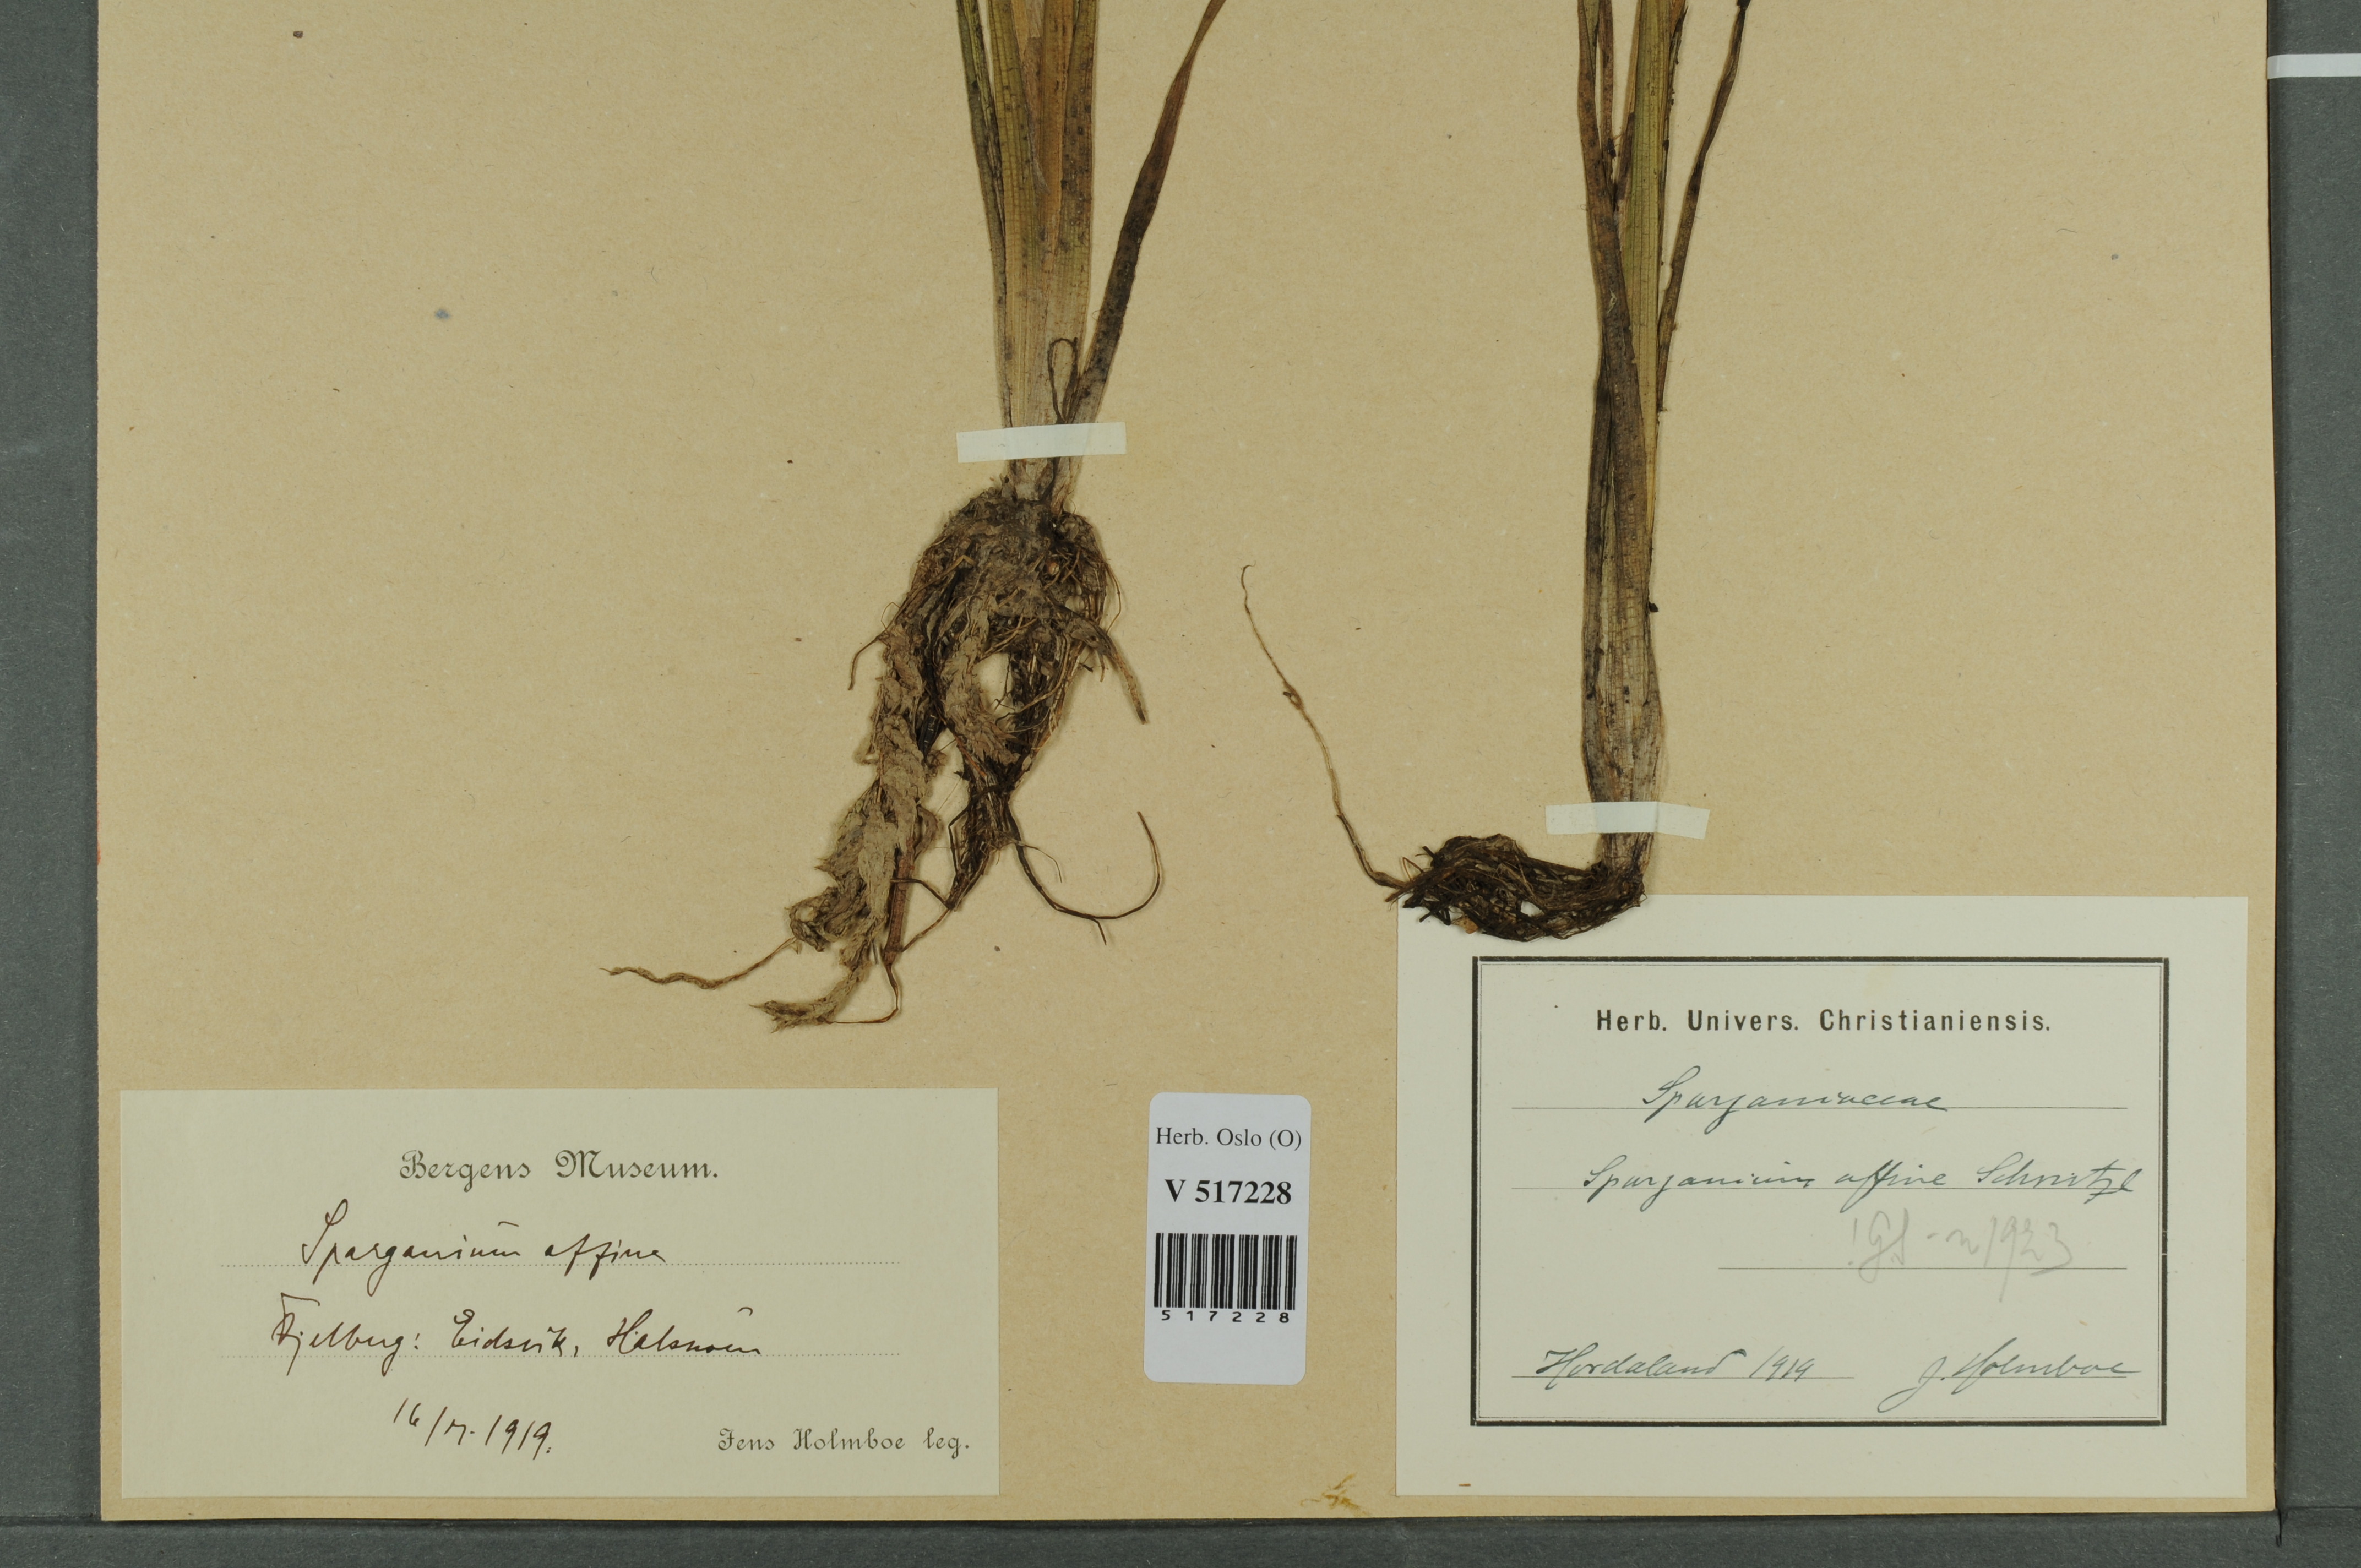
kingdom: Plantae
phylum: Tracheophyta
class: Liliopsida
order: Poales
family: Typhaceae
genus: Sparganium
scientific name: Sparganium angustifolium
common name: Floating bur-reed
